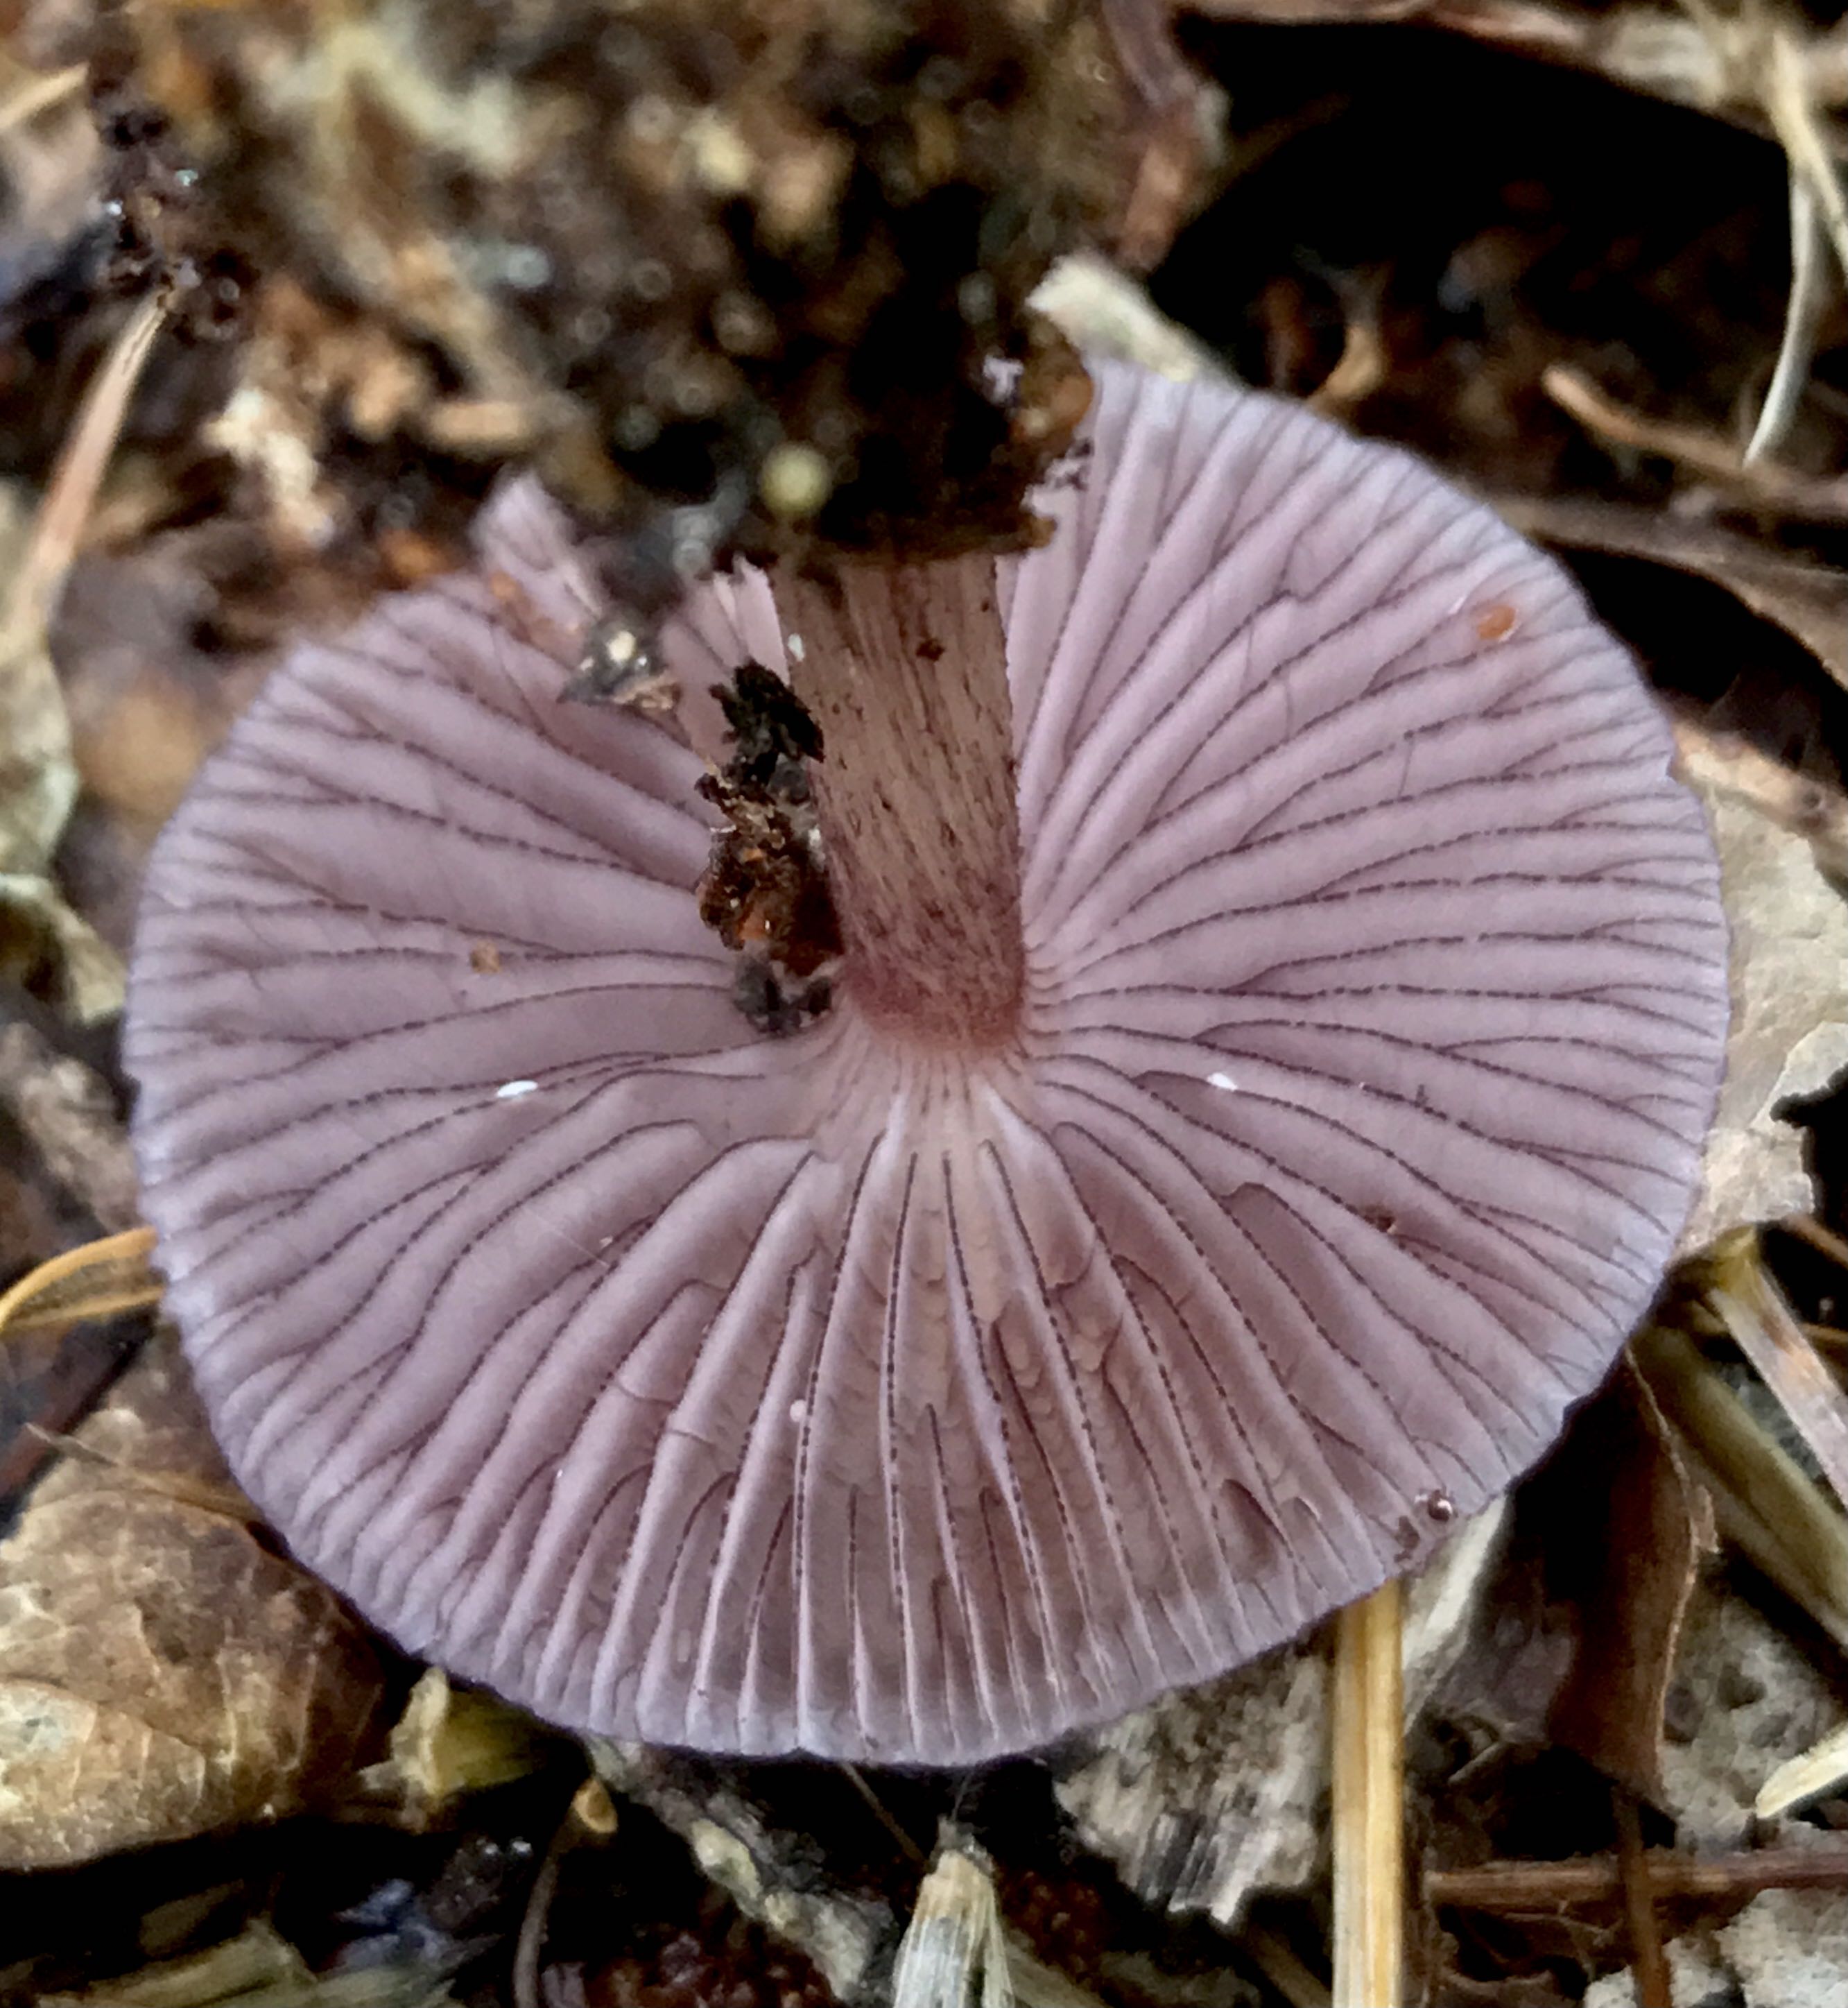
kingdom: Fungi
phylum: Basidiomycota
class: Agaricomycetes
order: Agaricales
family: Mycenaceae
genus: Mycena
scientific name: Mycena pelianthina
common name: mørkbladet huesvamp
